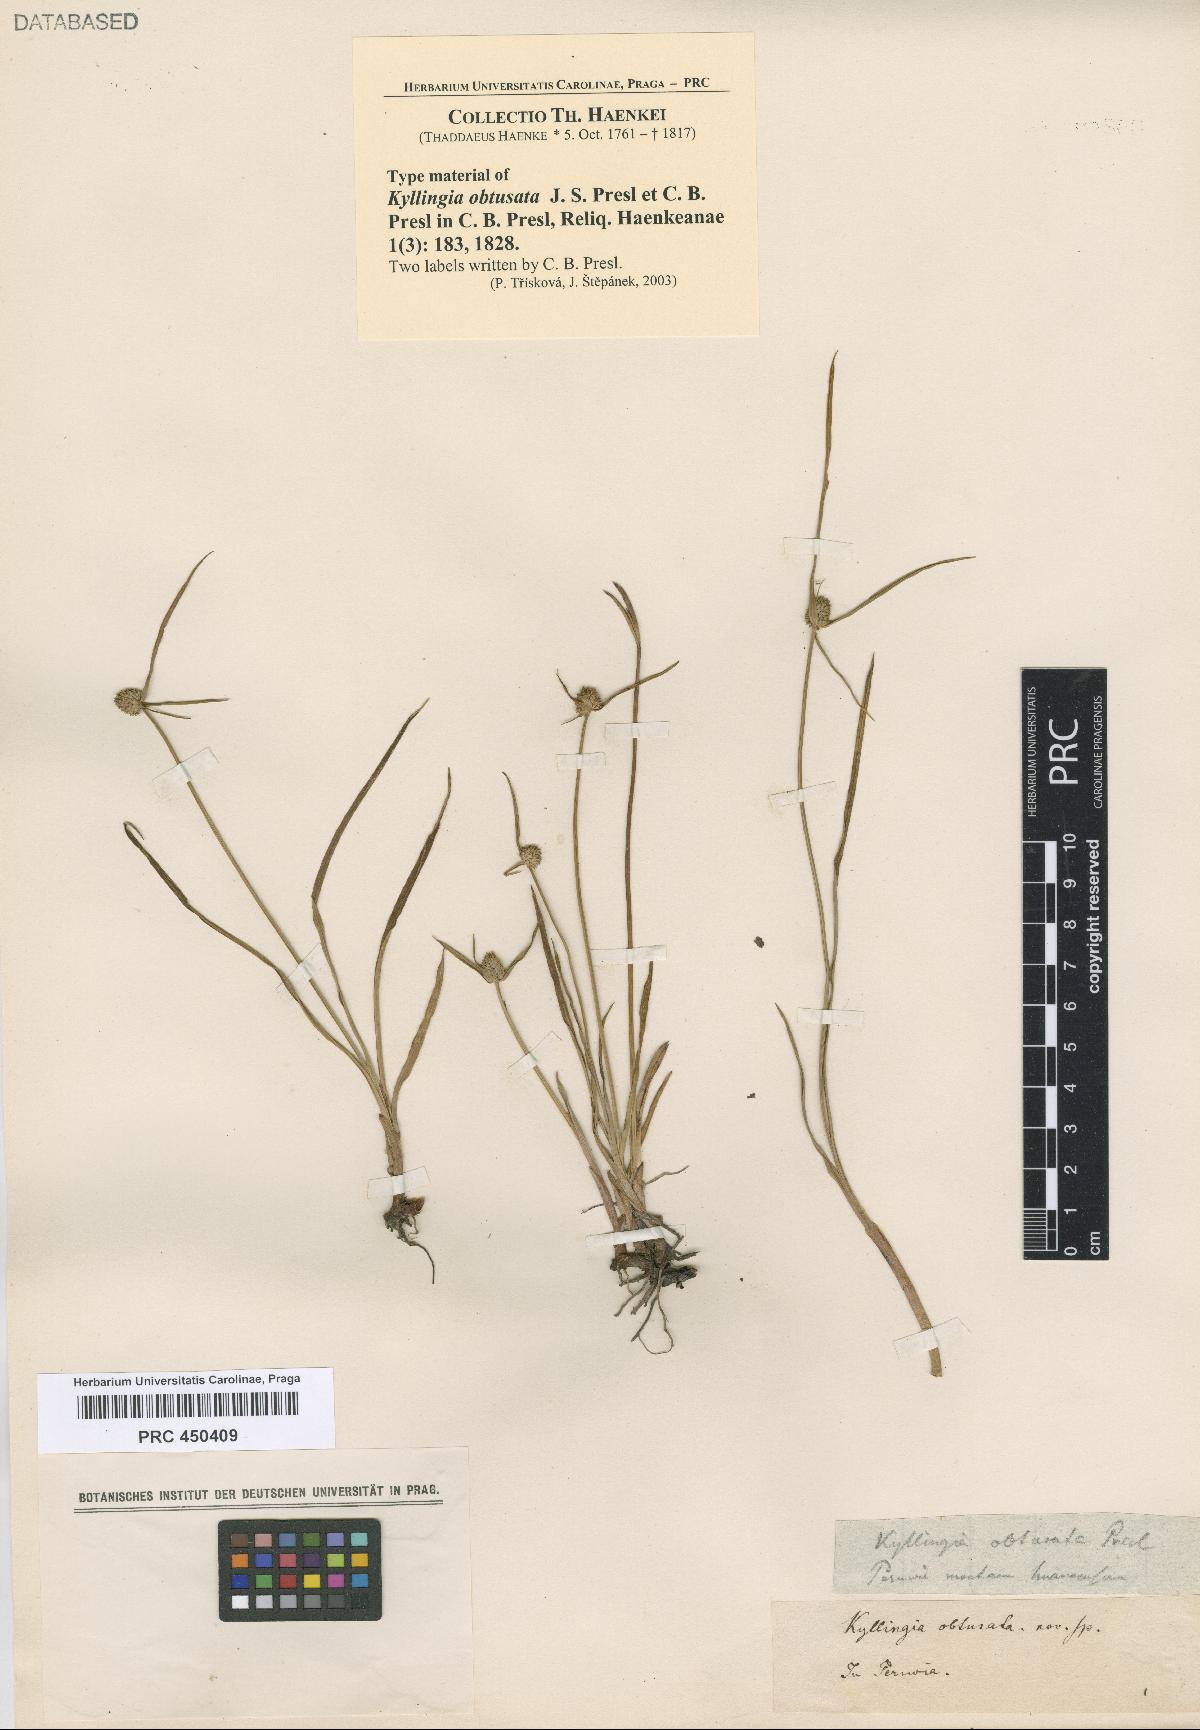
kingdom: Plantae
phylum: Tracheophyta
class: Liliopsida
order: Poales
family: Cyperaceae
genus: Cyperus
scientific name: Cyperus obtusatus
